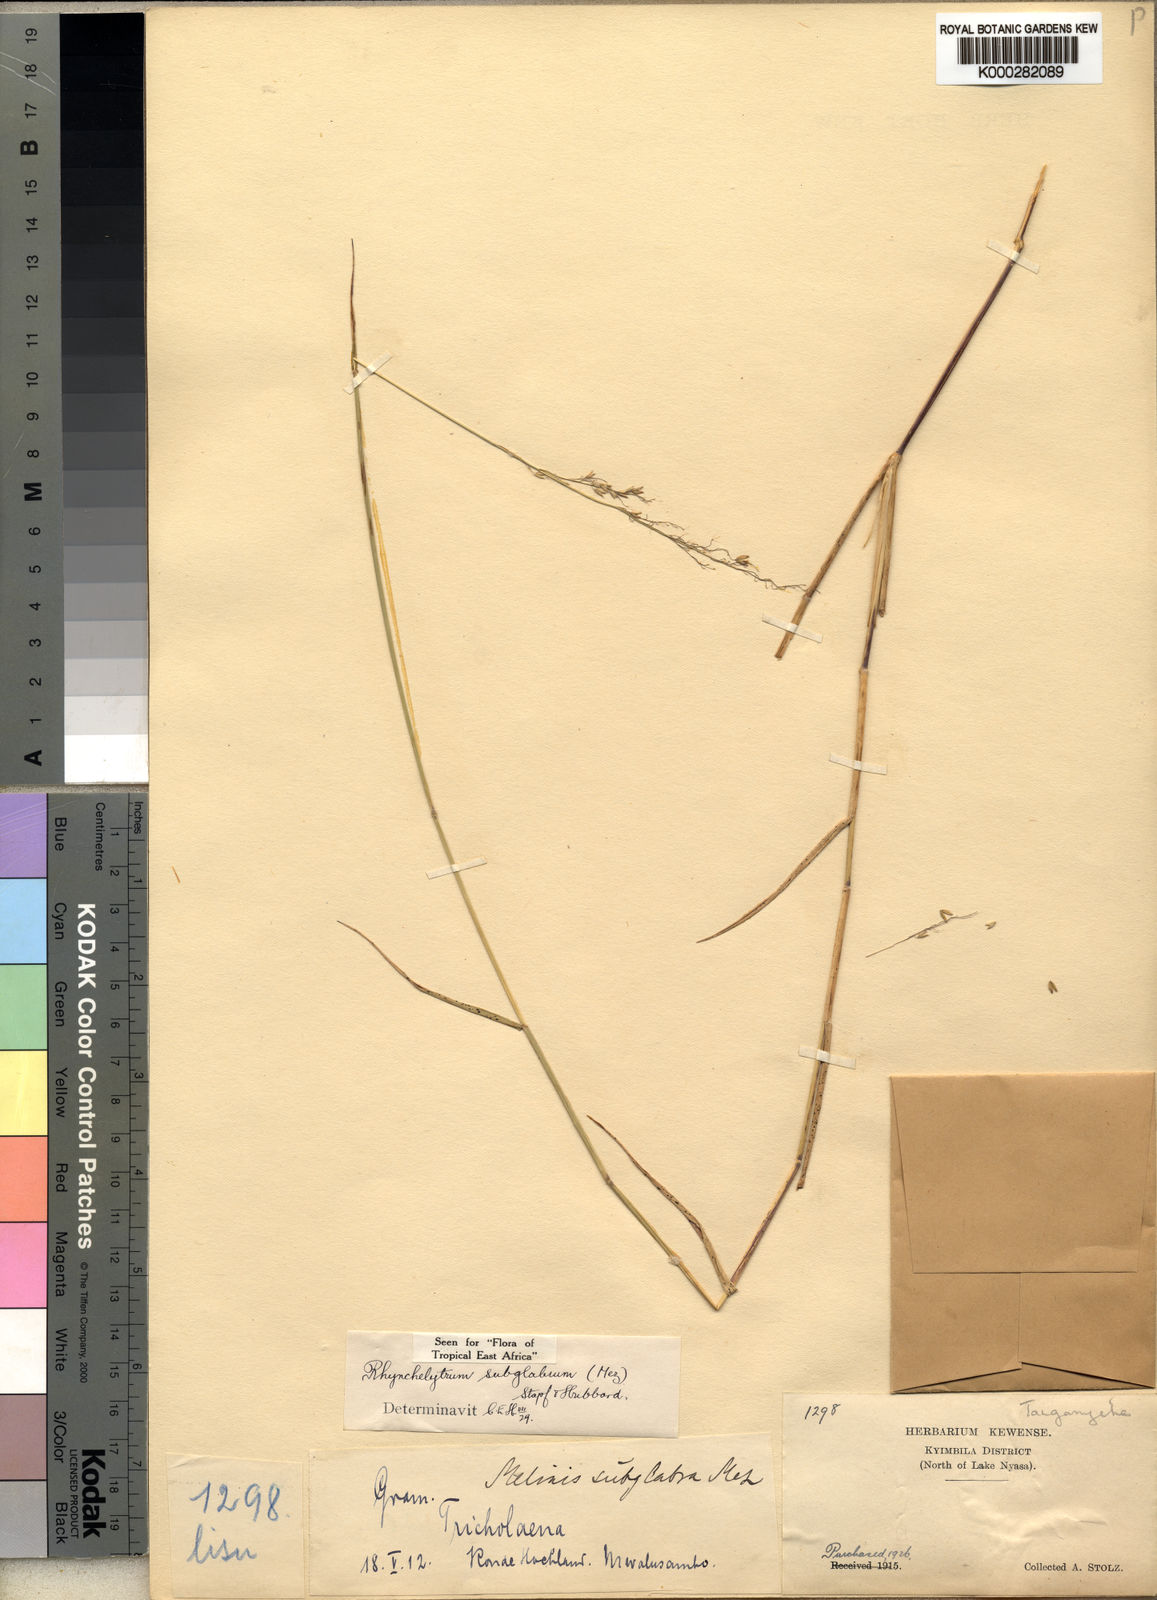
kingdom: Plantae
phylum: Tracheophyta
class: Liliopsida
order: Poales
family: Poaceae
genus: Melinis
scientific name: Melinis subglabra
